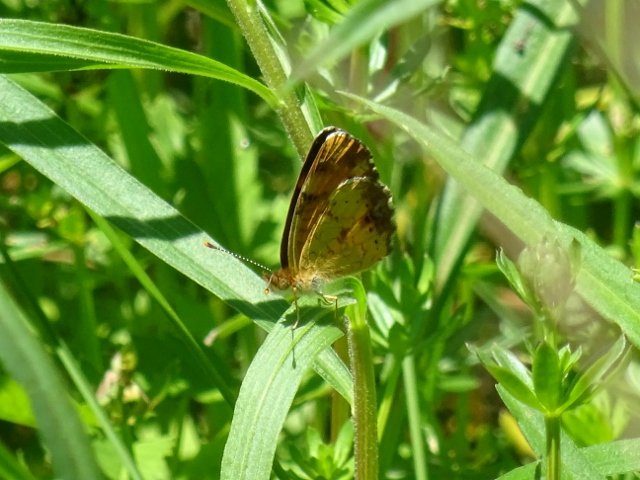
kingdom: Animalia
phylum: Arthropoda
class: Insecta
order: Lepidoptera
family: Nymphalidae
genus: Phyciodes
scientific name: Phyciodes tharos
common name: Northern Crescent
